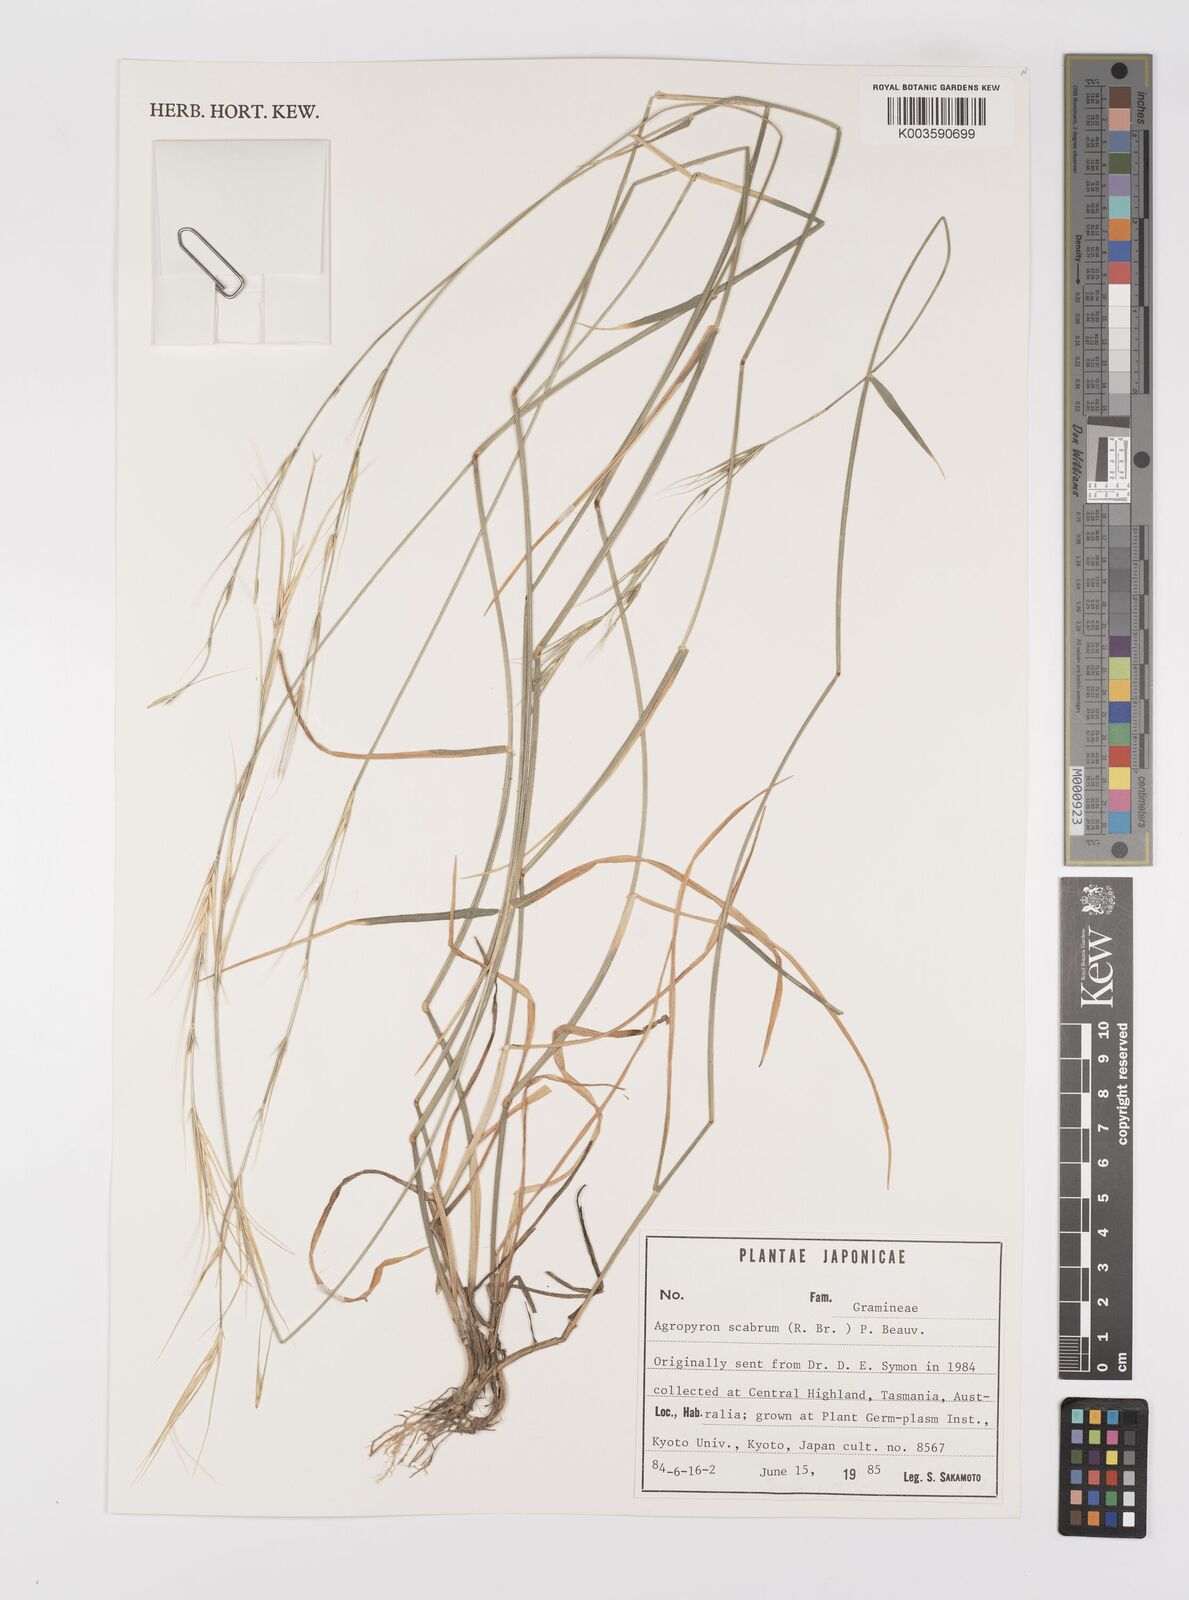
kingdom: Plantae
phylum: Tracheophyta
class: Liliopsida
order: Poales
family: Poaceae
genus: Elymus
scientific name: Elymus
